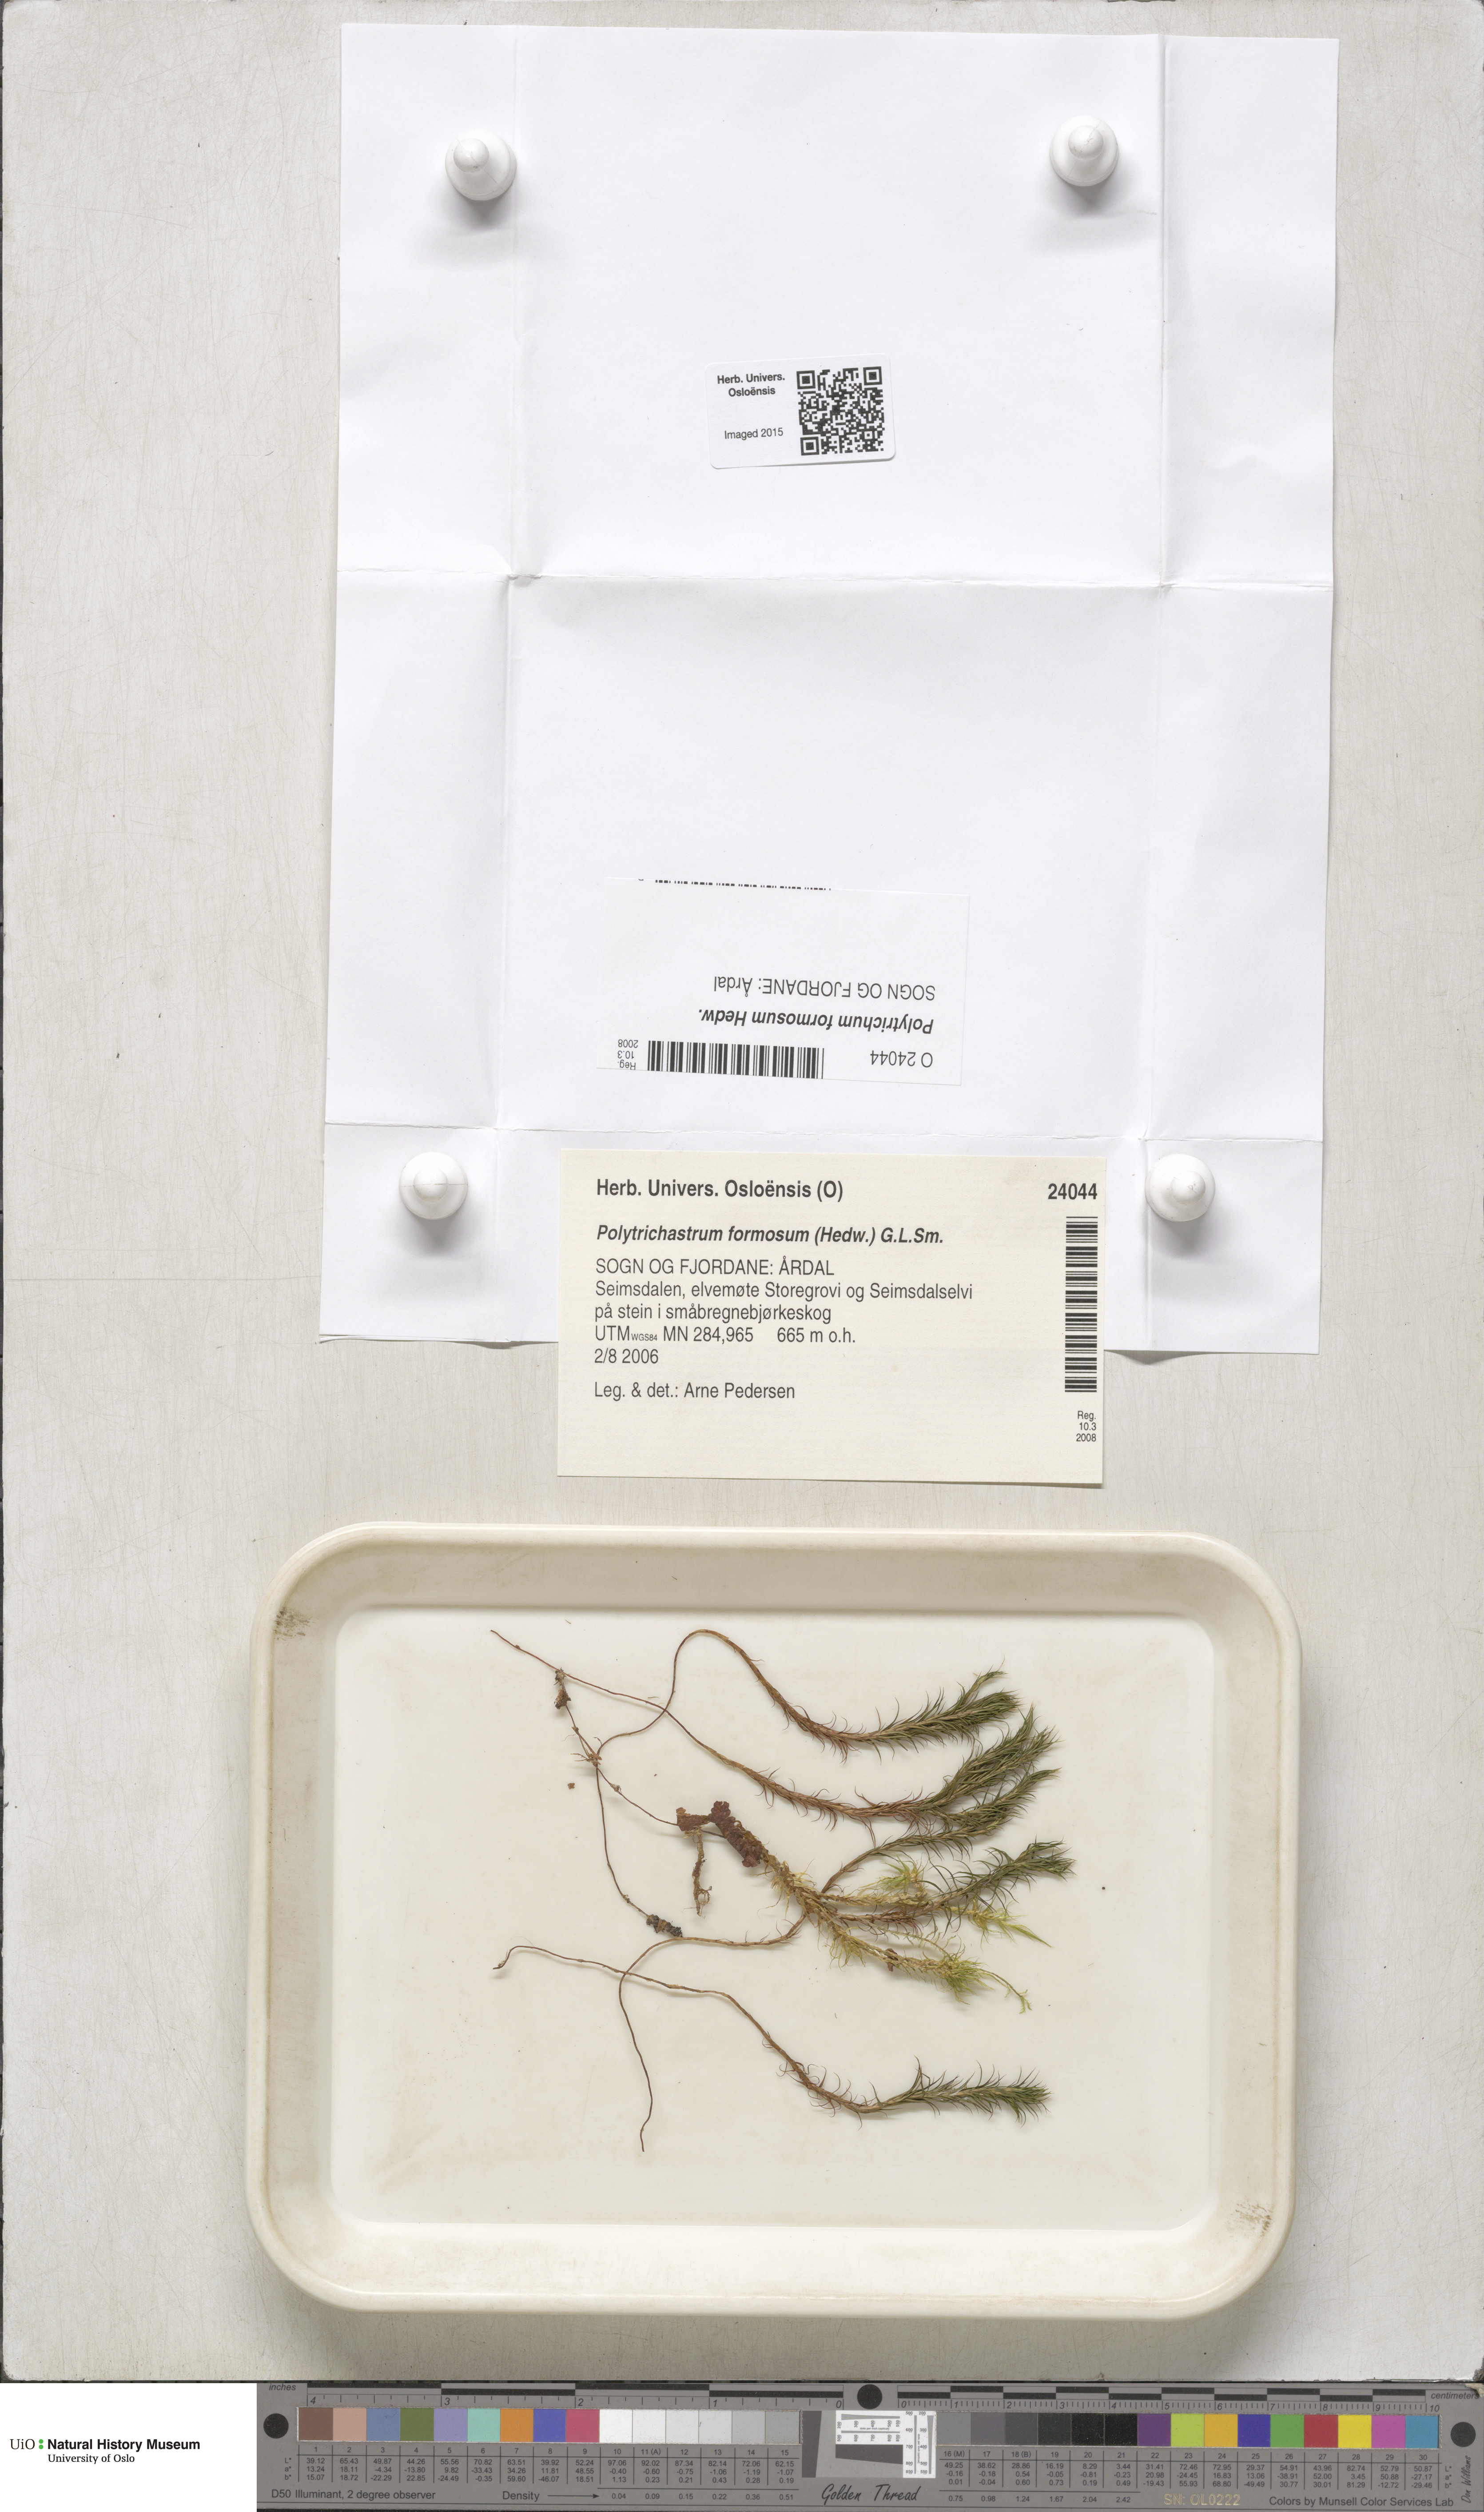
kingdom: Plantae
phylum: Bryophyta
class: Polytrichopsida
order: Polytrichales
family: Polytrichaceae
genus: Polytrichum
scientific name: Polytrichum formosum
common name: Bank haircap moss
